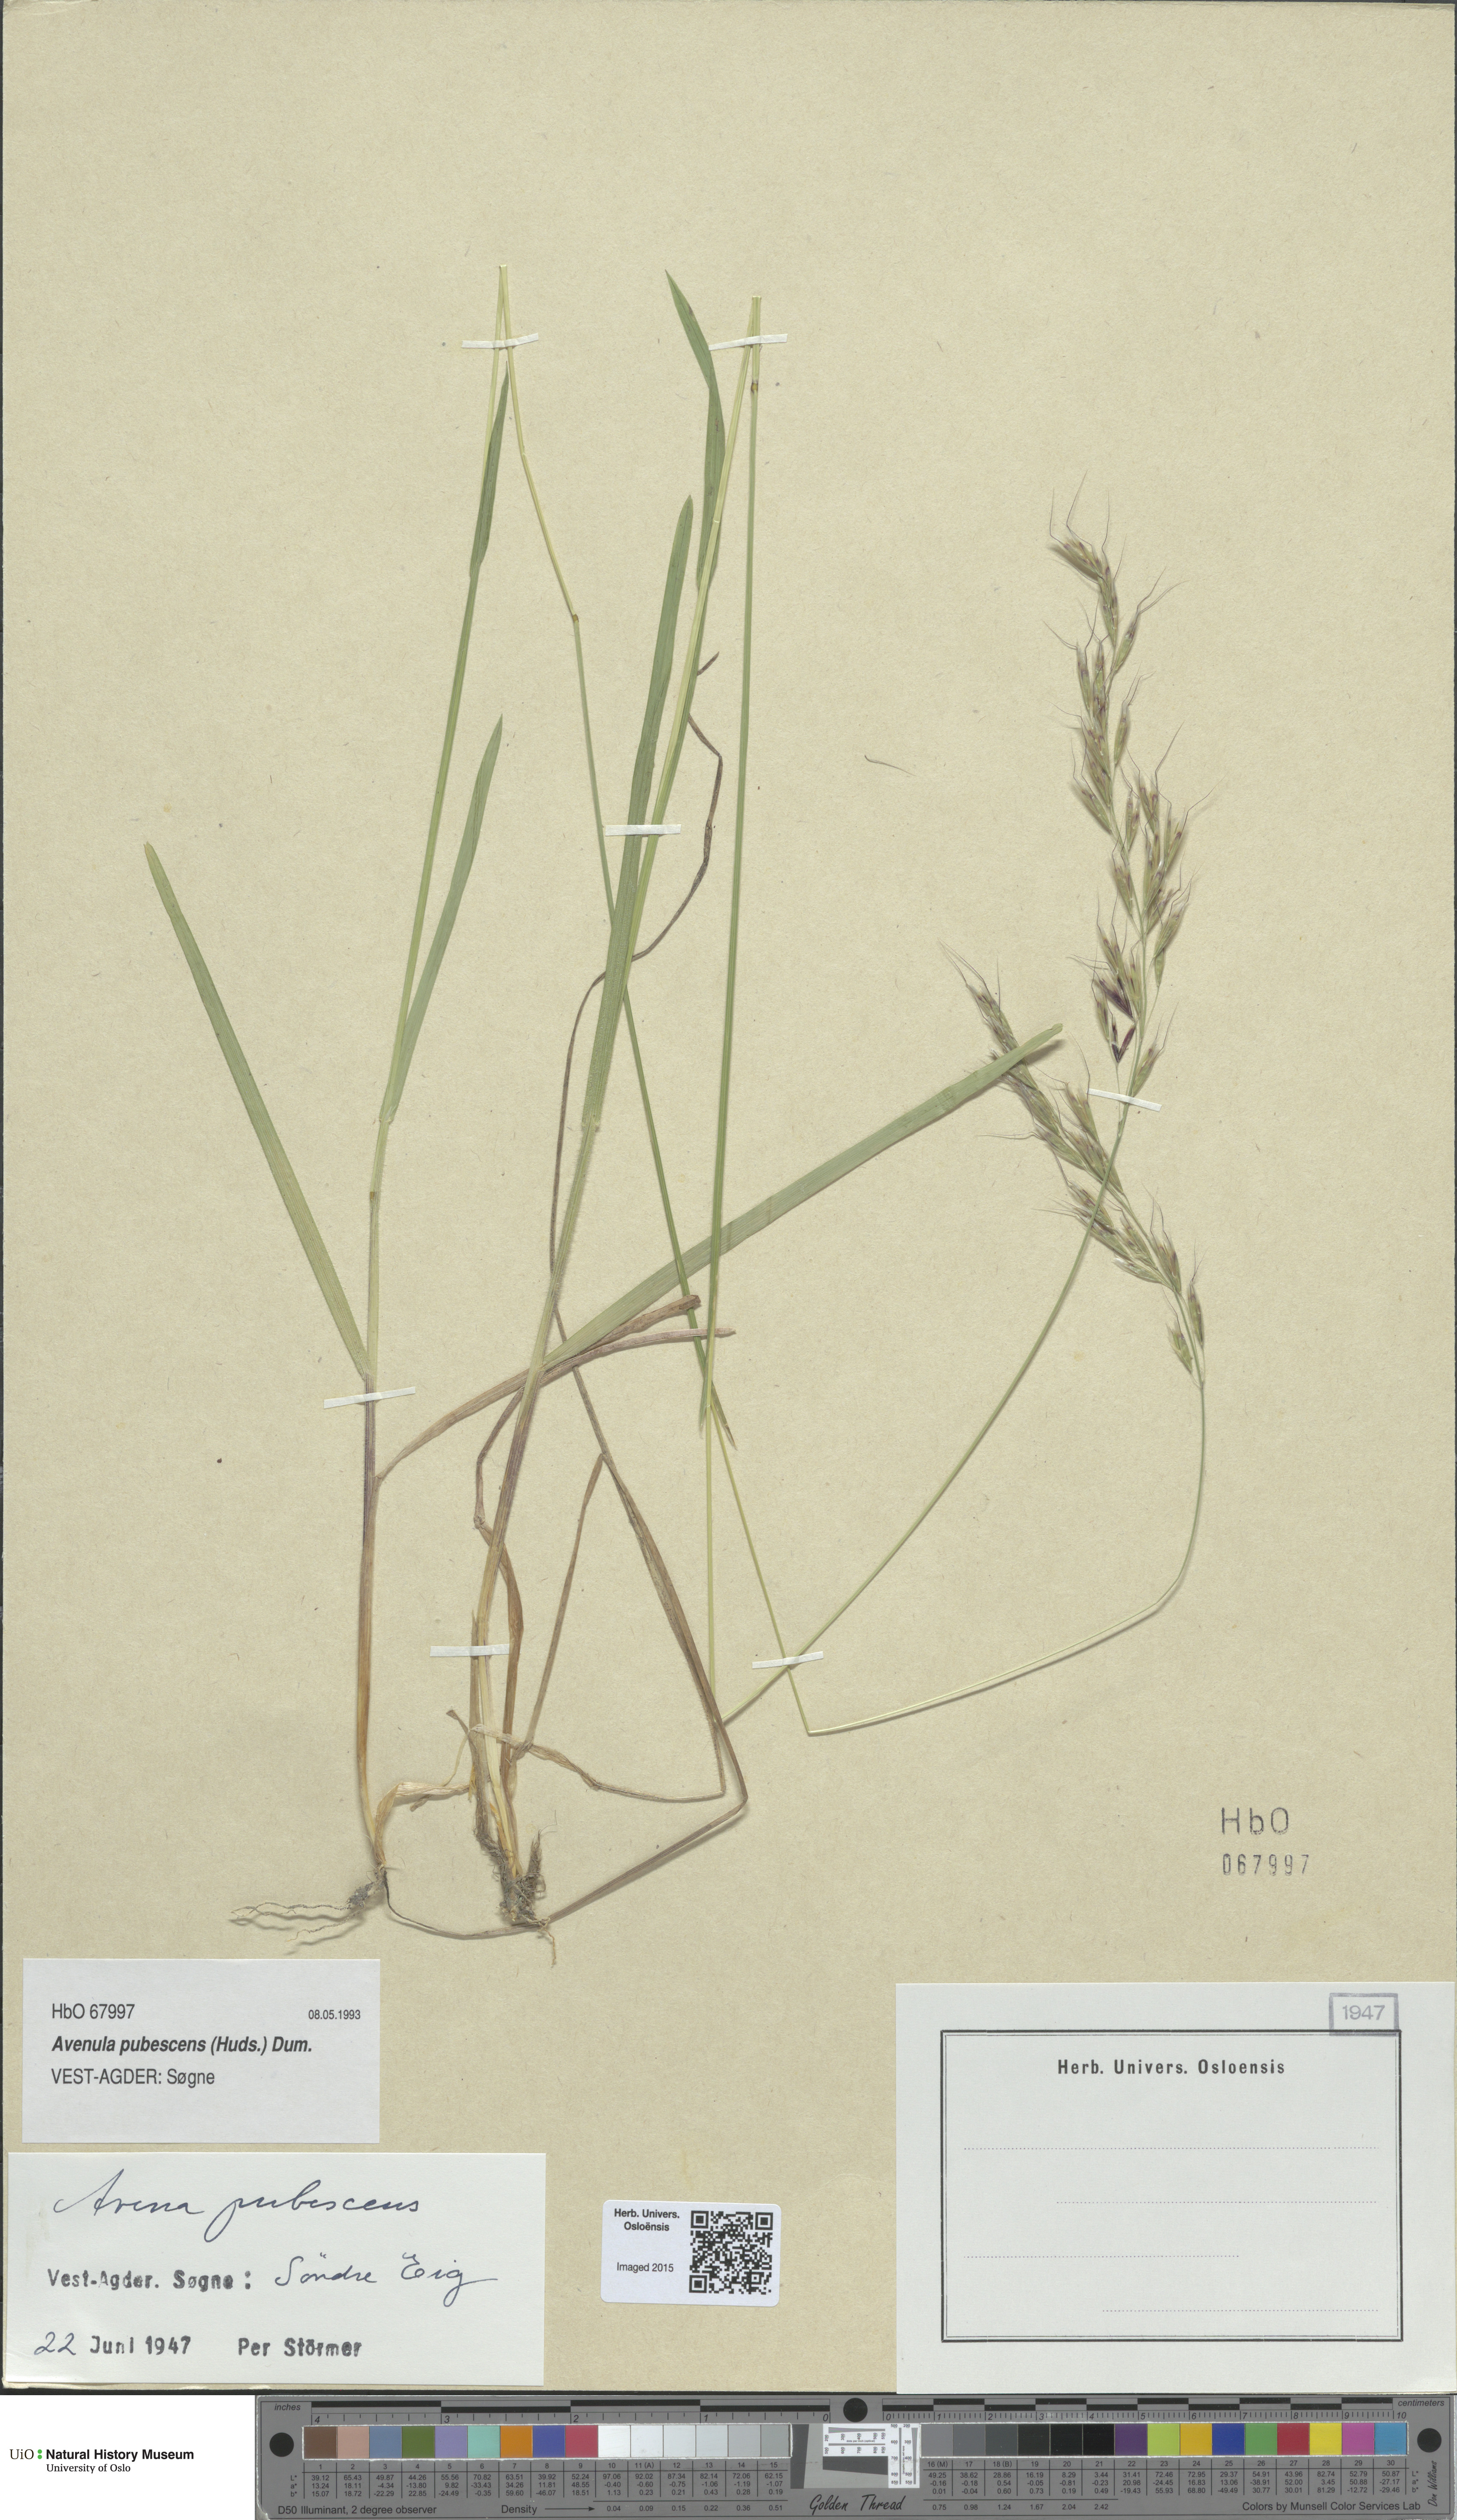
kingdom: Plantae
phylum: Tracheophyta
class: Liliopsida
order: Poales
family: Poaceae
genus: Avenula
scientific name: Avenula pubescens
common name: Downy alpine oatgrass
